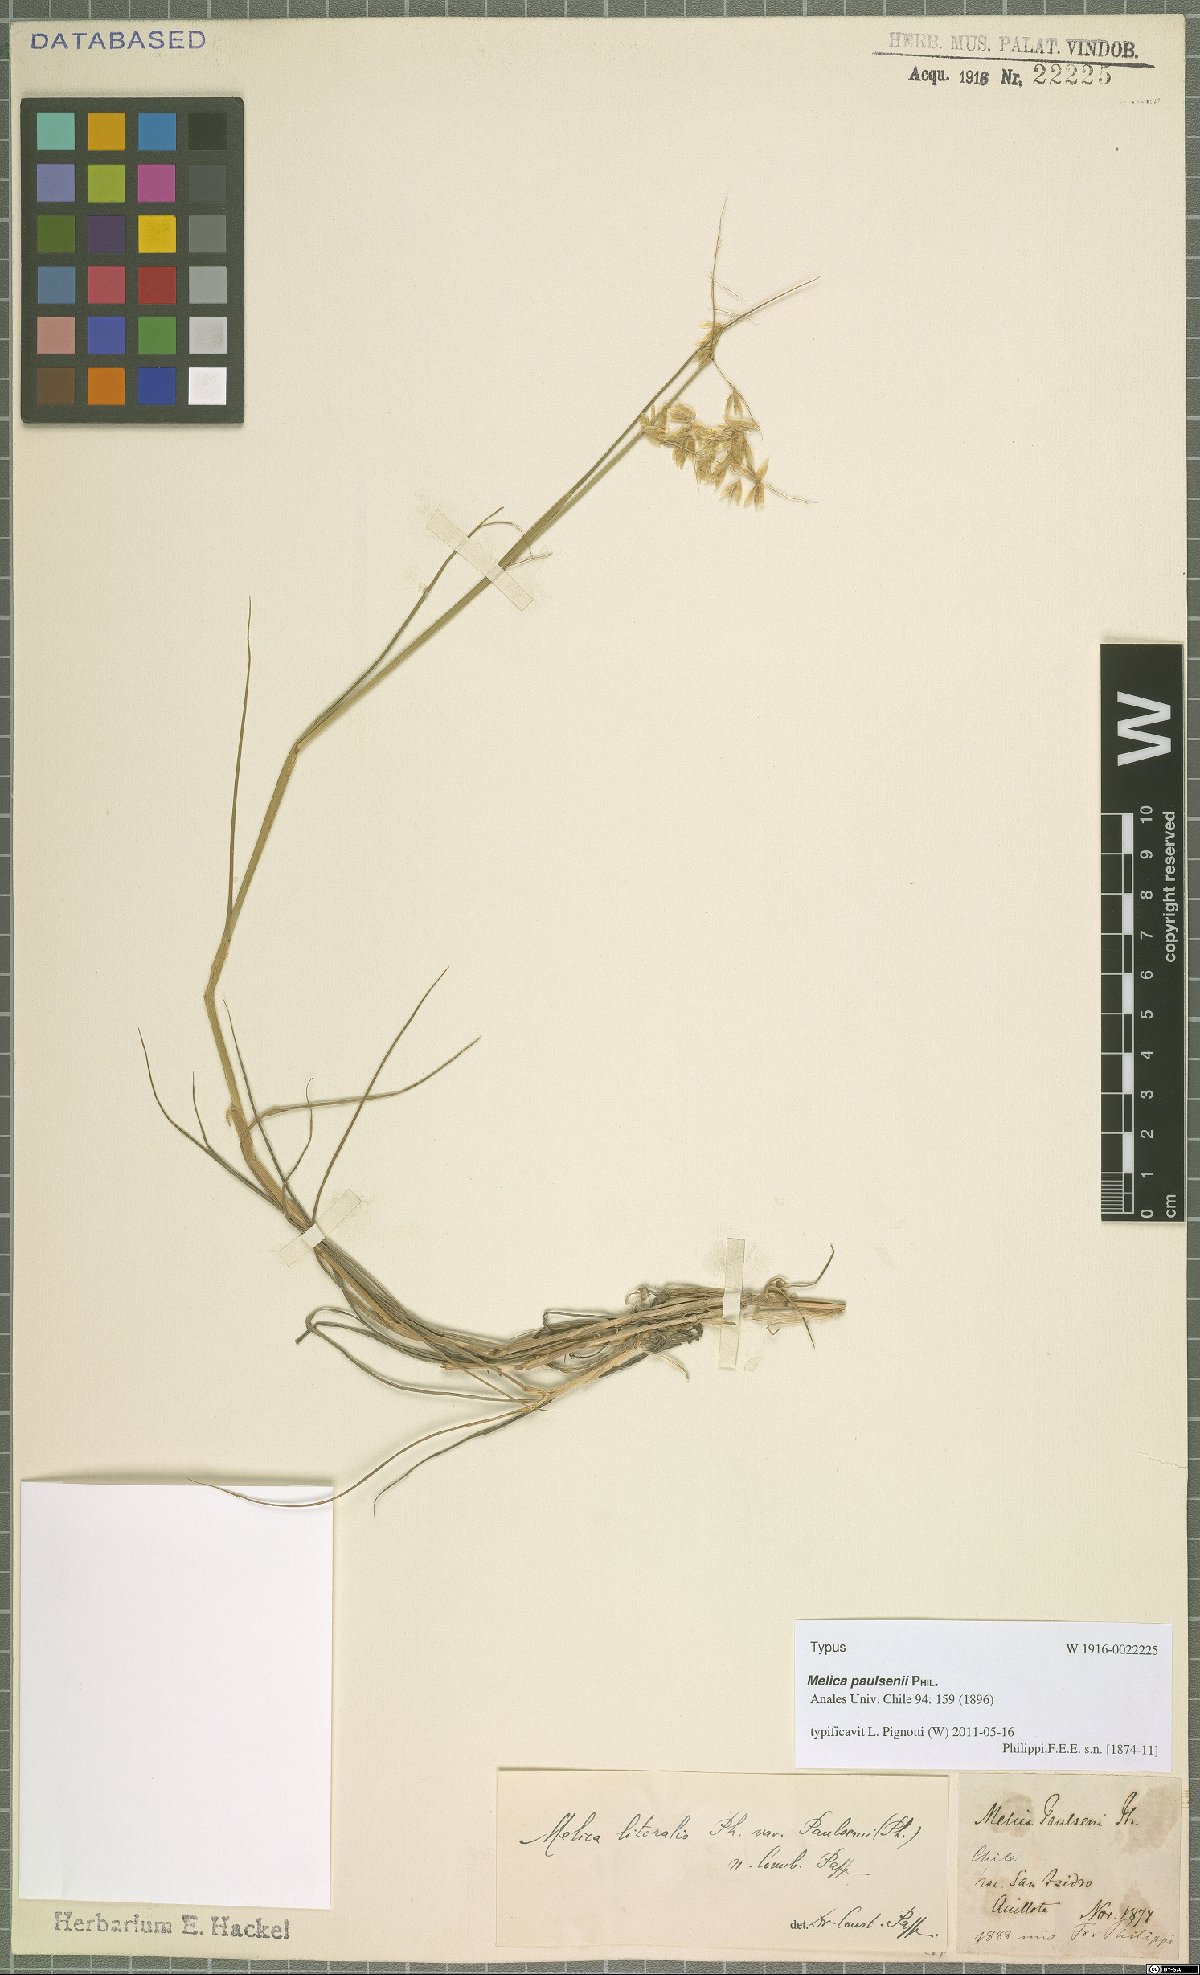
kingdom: Plantae
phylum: Tracheophyta
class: Liliopsida
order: Poales
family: Poaceae
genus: Melica
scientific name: Melica paulsenii
